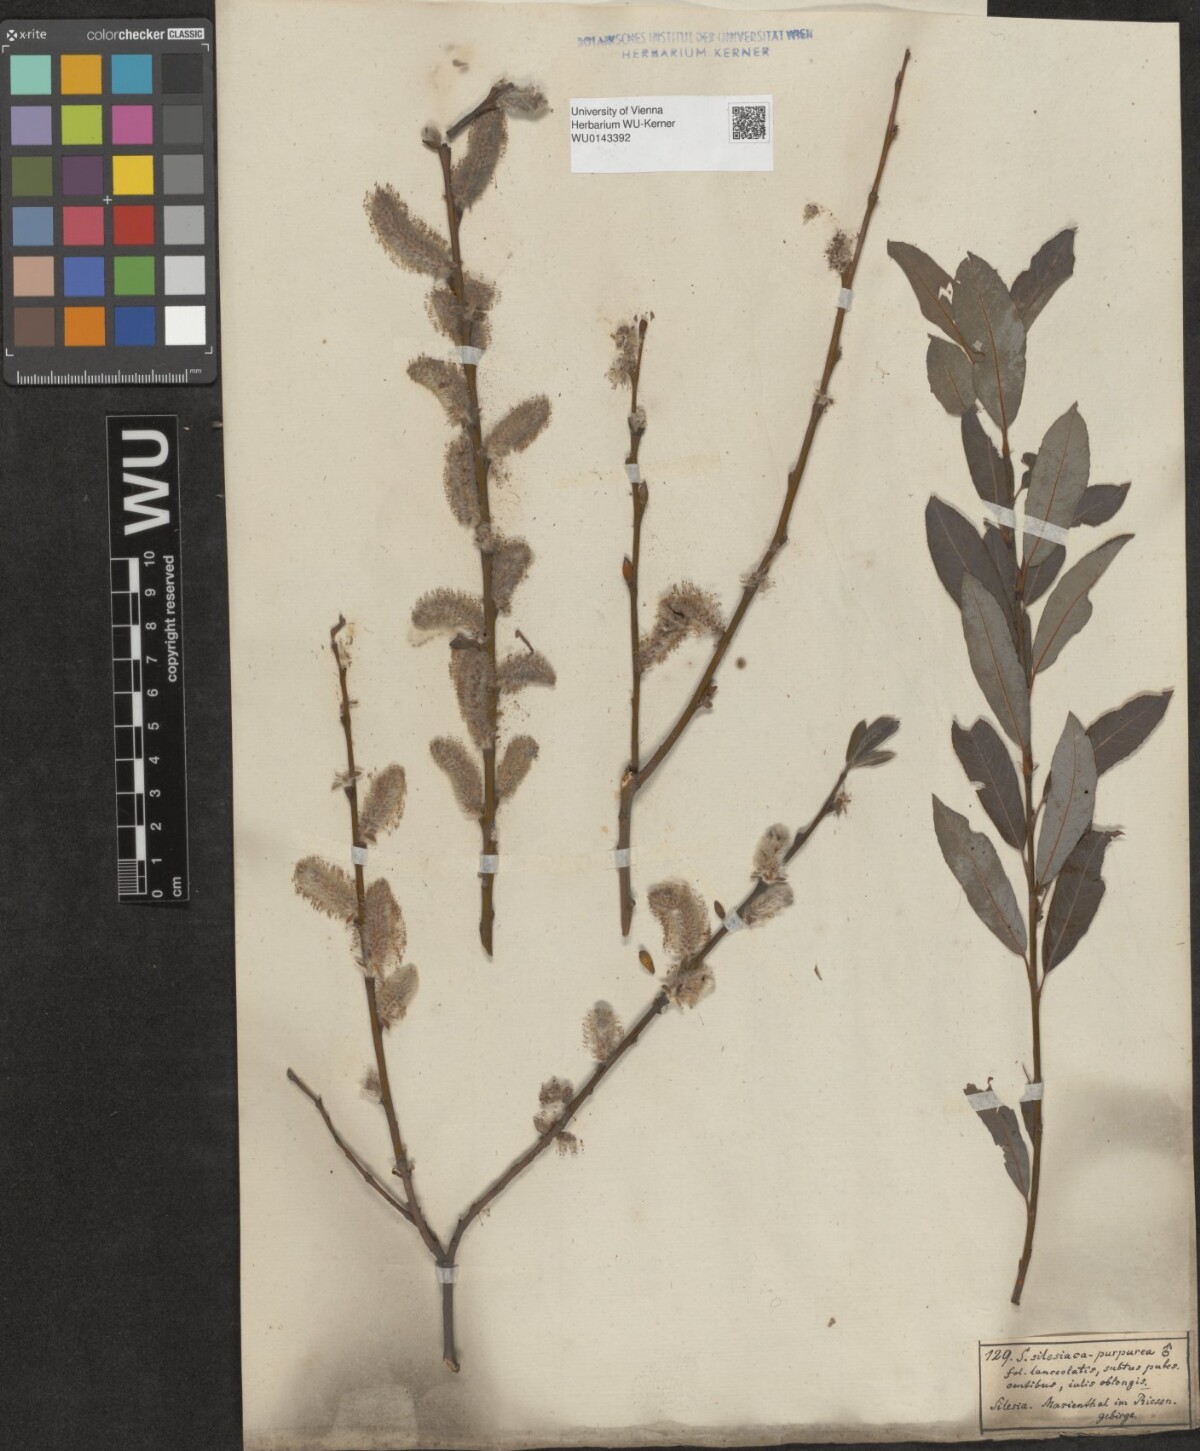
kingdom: Plantae
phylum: Tracheophyta
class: Magnoliopsida
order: Malpighiales
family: Salicaceae
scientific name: Salicaceae
